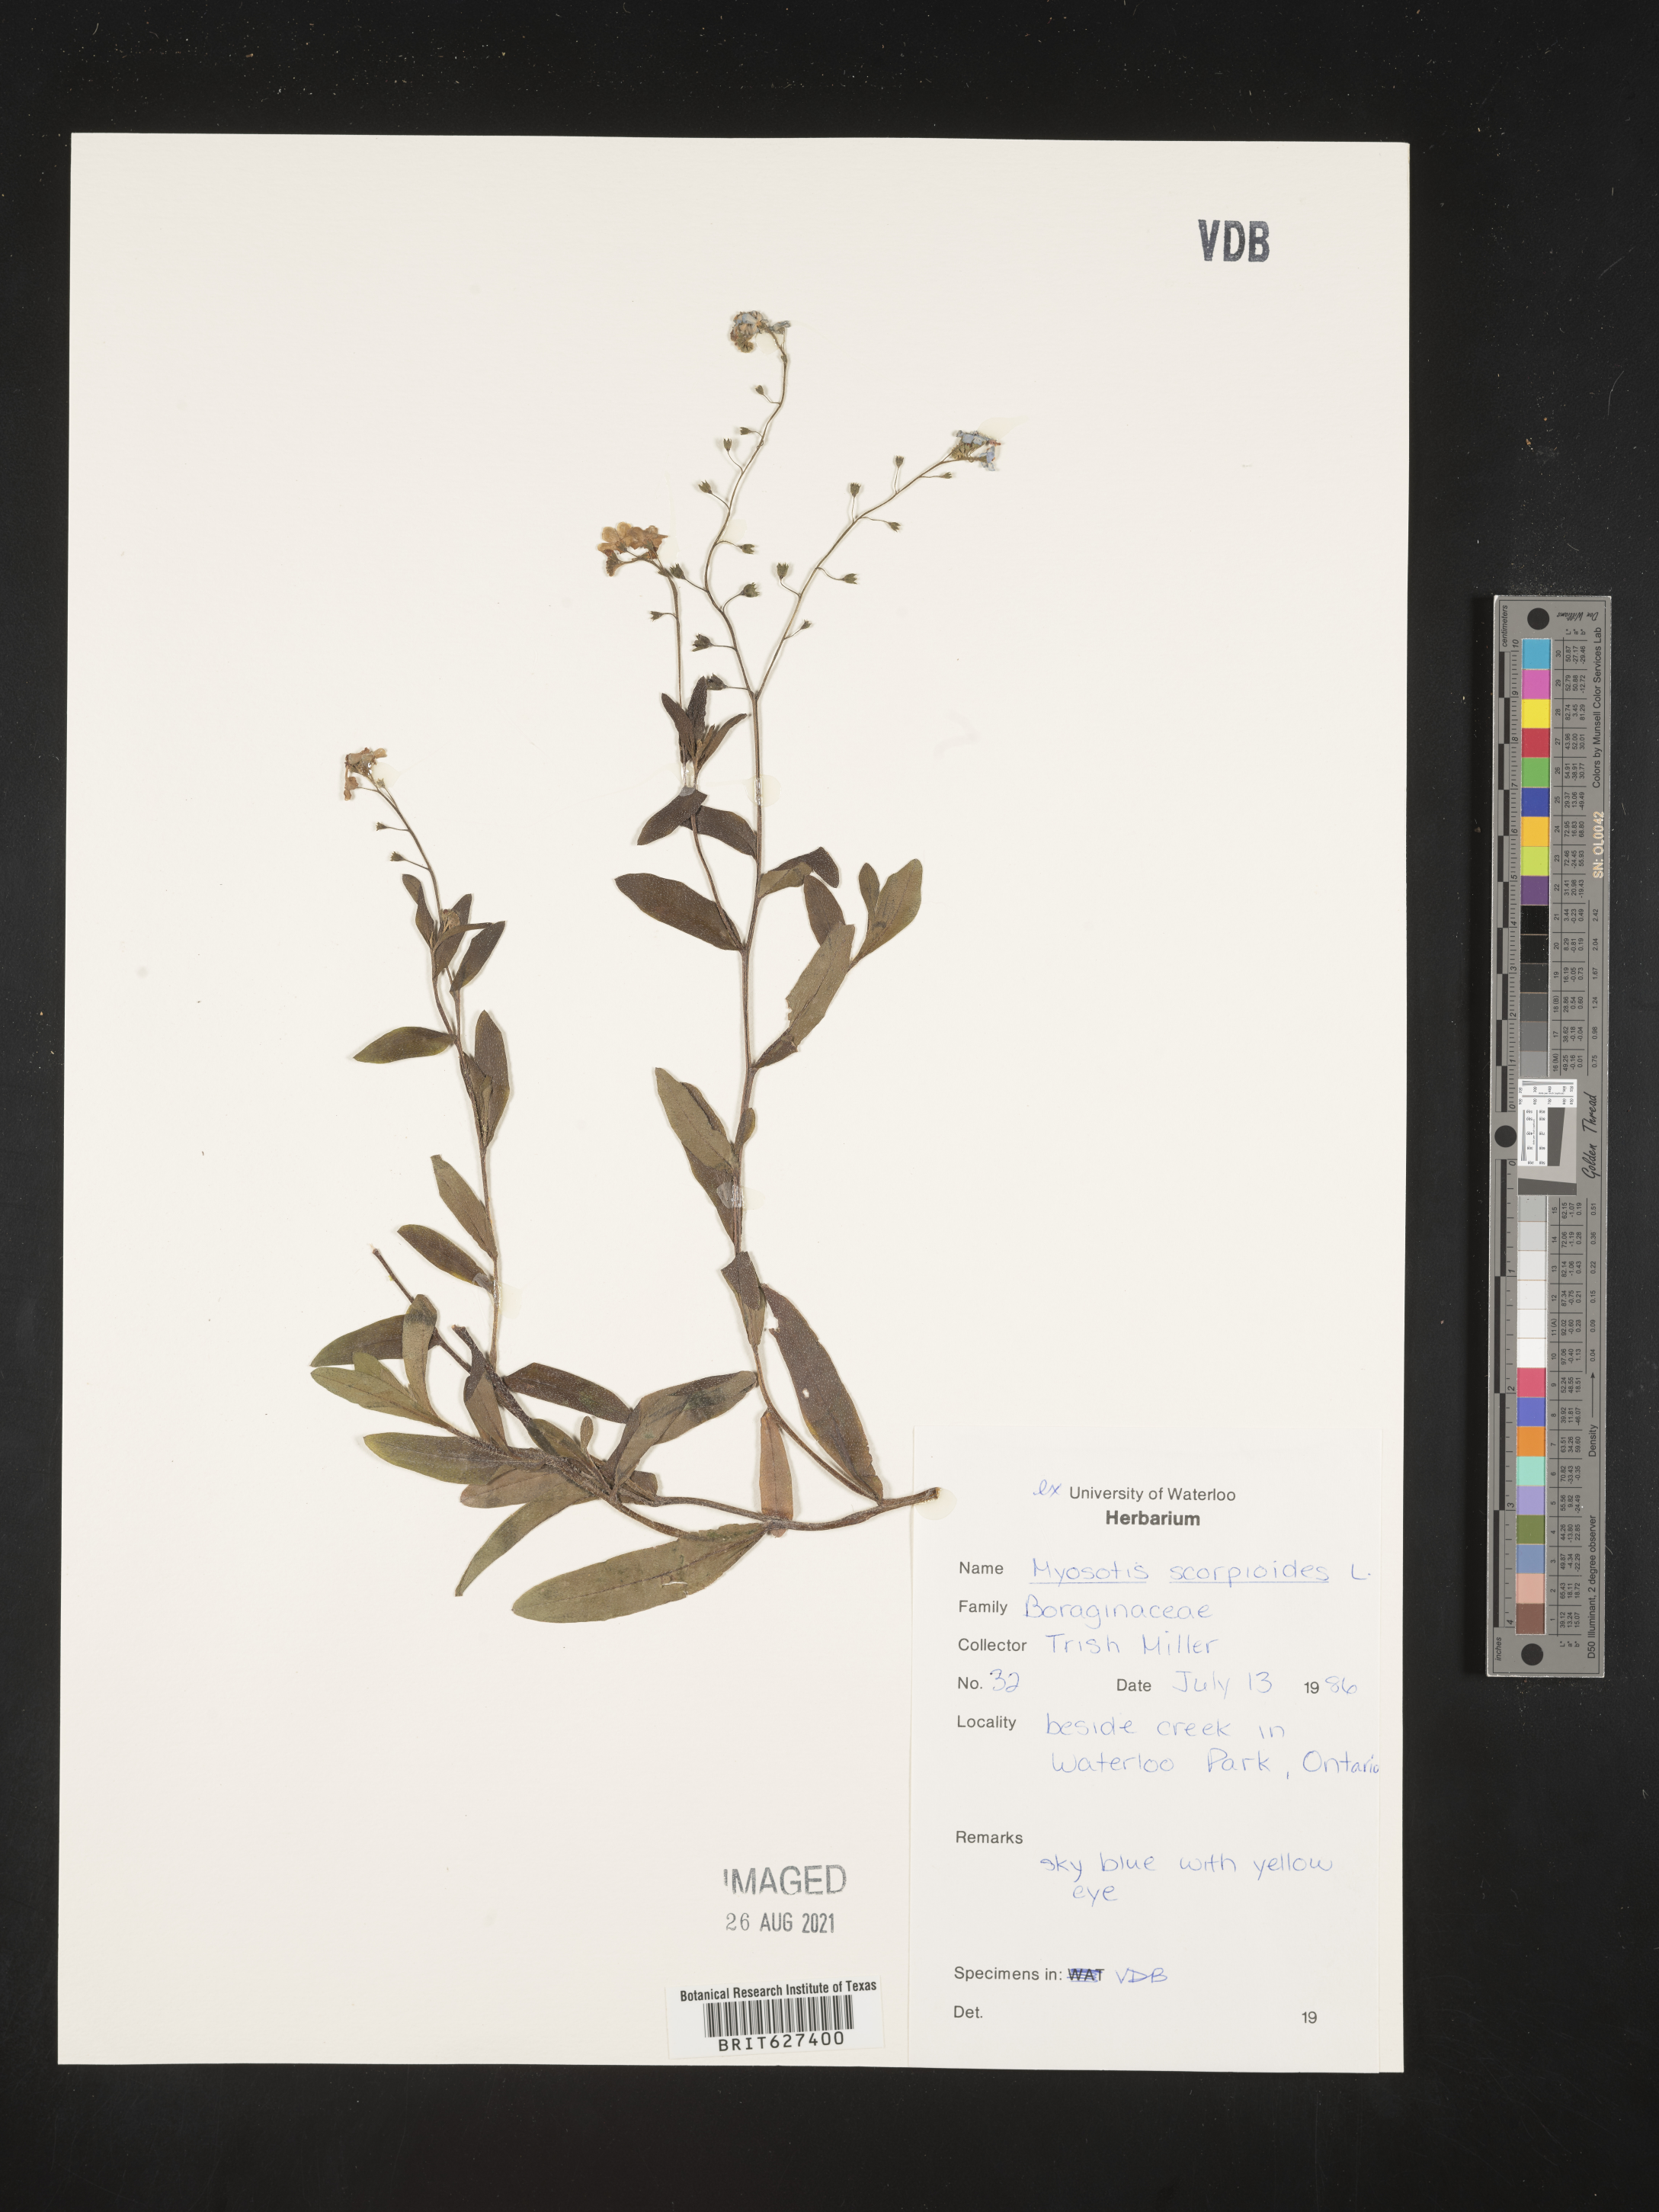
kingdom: Plantae
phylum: Tracheophyta
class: Magnoliopsida
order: Boraginales
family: Boraginaceae
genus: Myosotis
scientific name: Myosotis scorpioides
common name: Water forget-me-not
